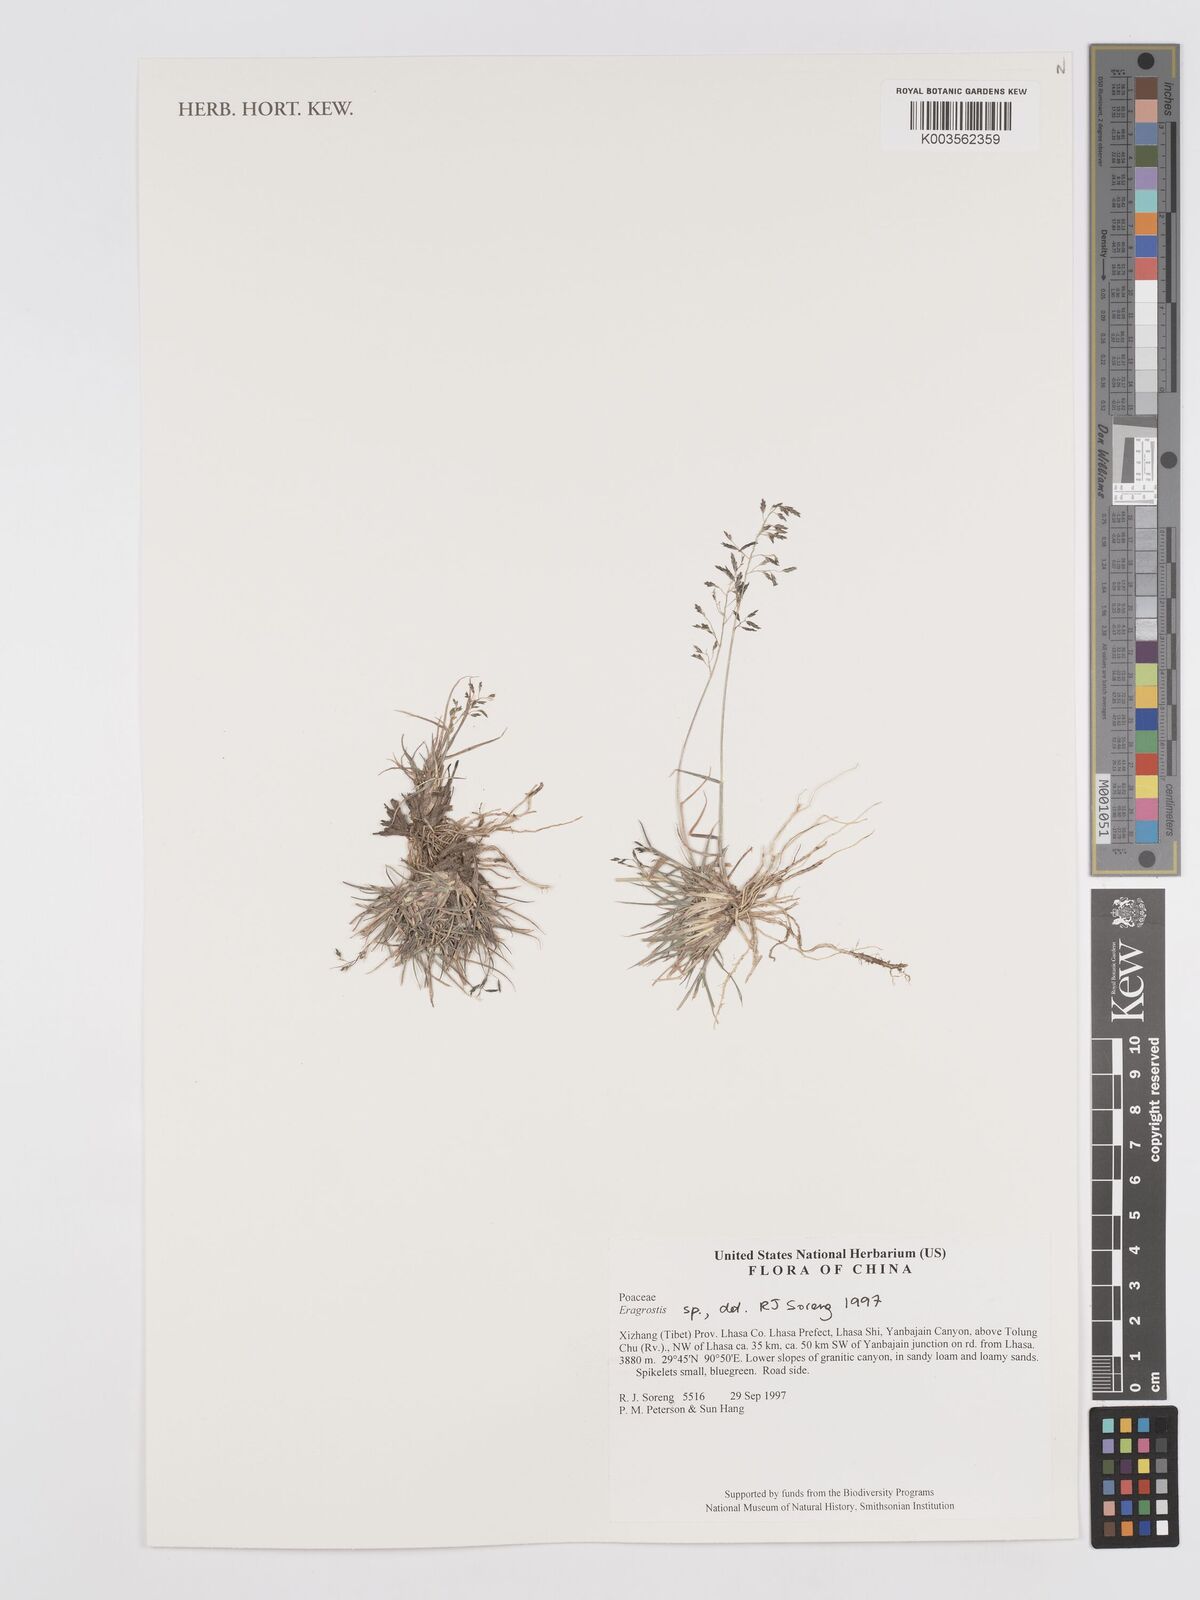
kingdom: Plantae
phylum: Tracheophyta
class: Liliopsida
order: Poales
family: Poaceae
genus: Eragrostis
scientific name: Eragrostis
